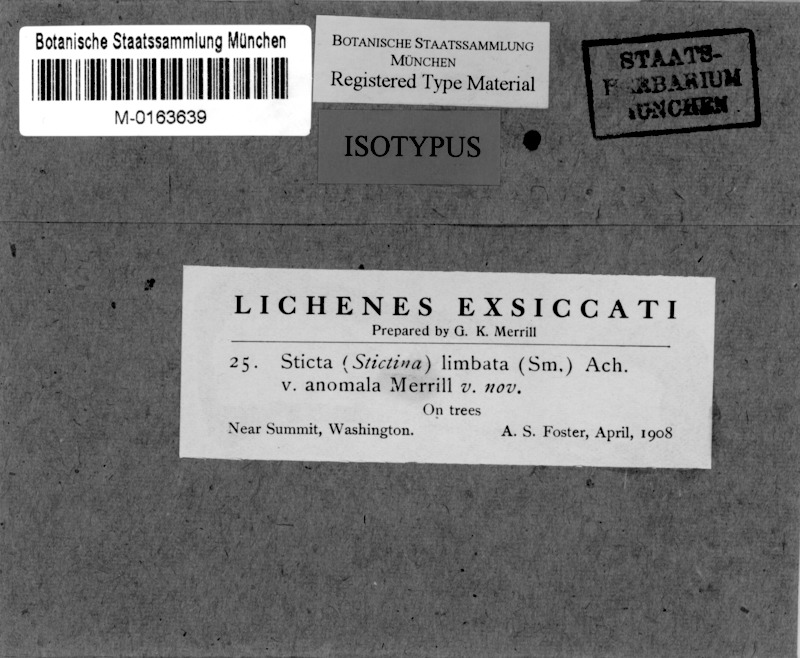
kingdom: Fungi
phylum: Ascomycota
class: Lecanoromycetes
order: Peltigerales
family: Lobariaceae
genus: Lobaria
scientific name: Lobaria anomala
